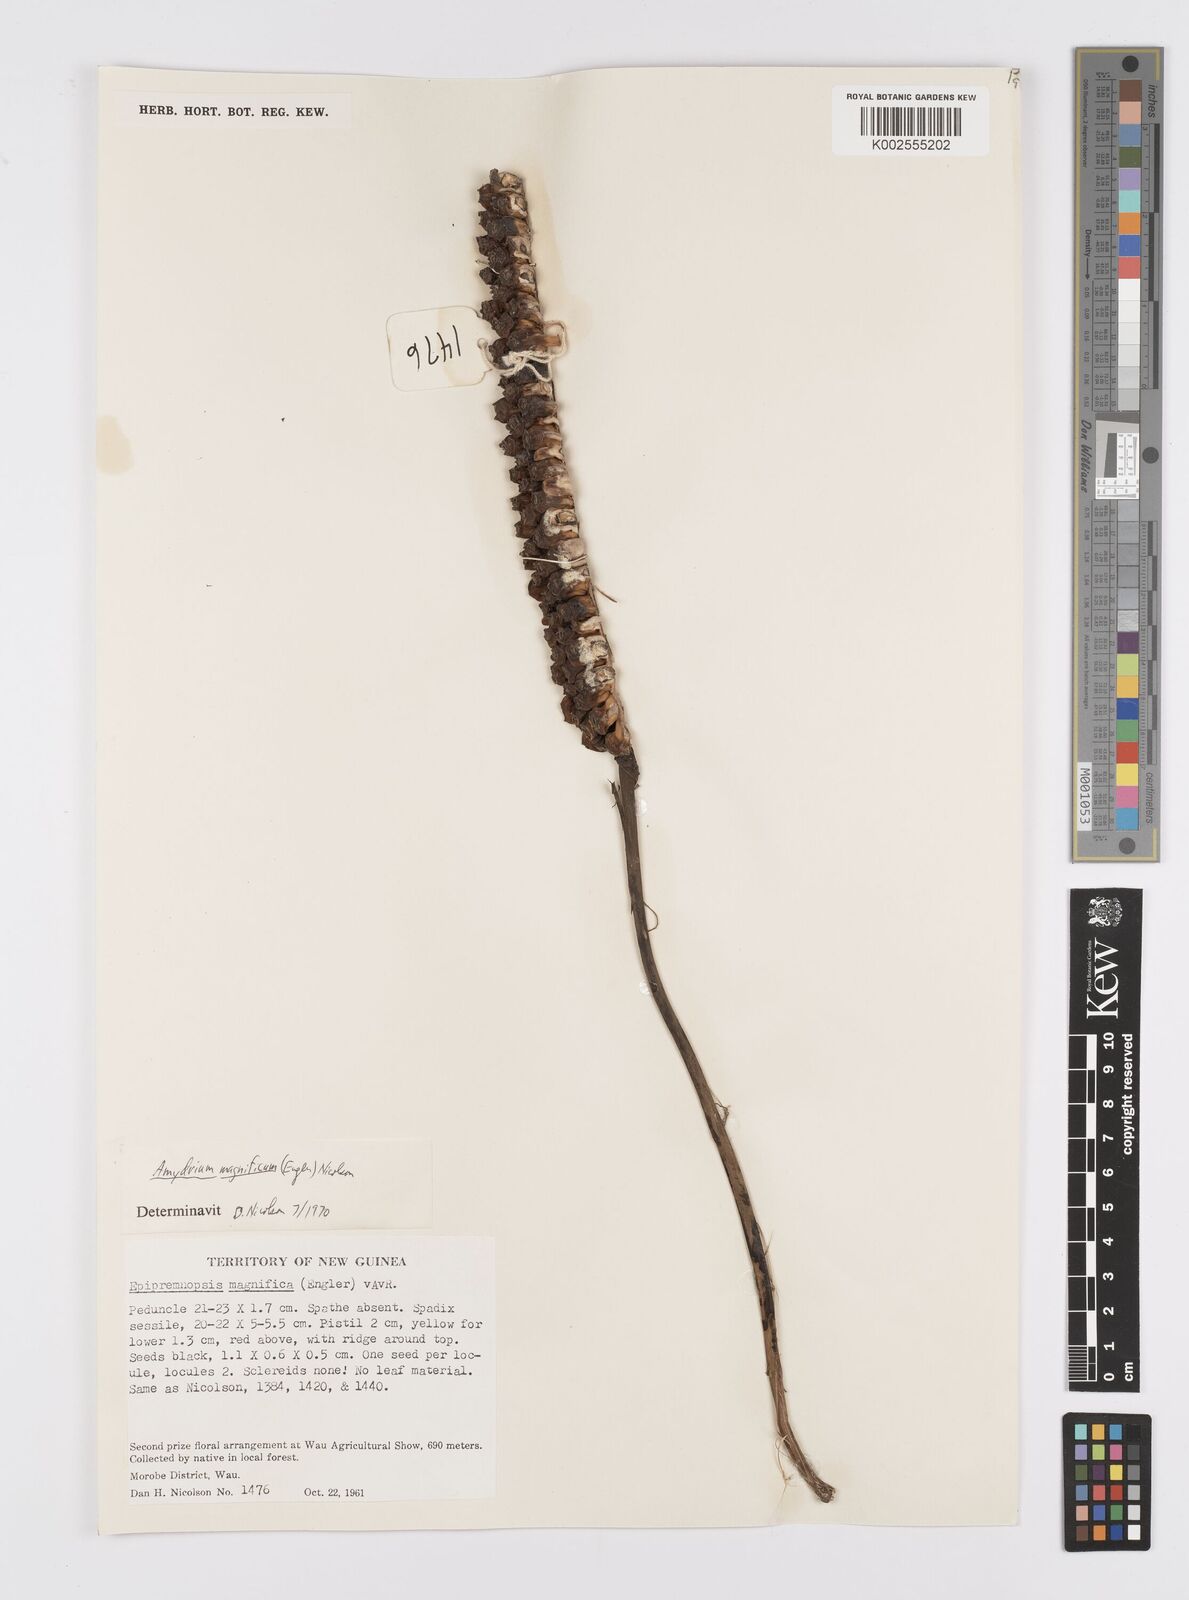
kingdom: Plantae
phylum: Tracheophyta
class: Liliopsida
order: Alismatales
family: Araceae
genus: Amydrium
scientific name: Amydrium zippelianum
